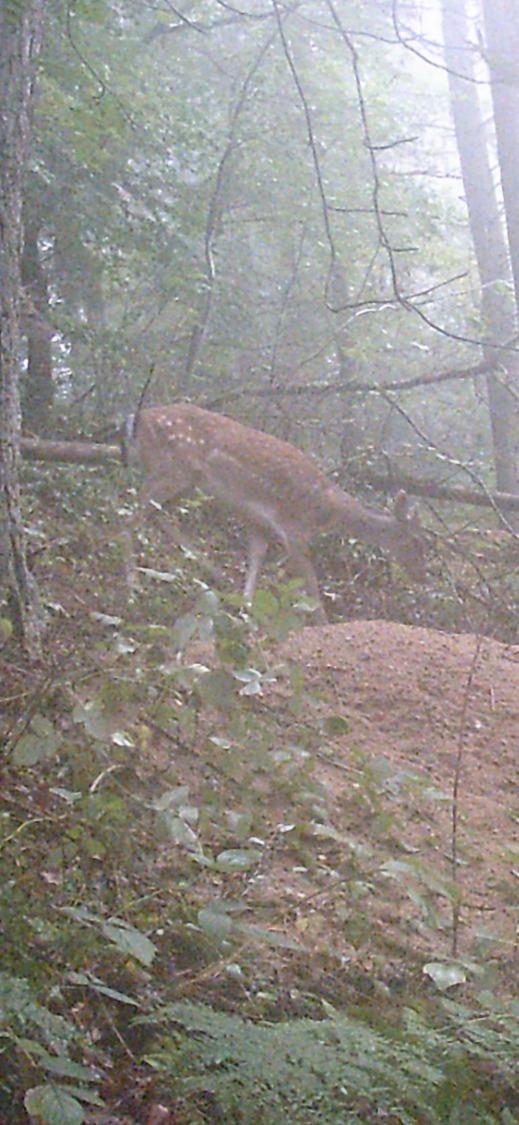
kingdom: Animalia
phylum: Chordata
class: Mammalia
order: Artiodactyla
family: Cervidae
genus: Dama
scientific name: Dama dama
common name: Dådyr
